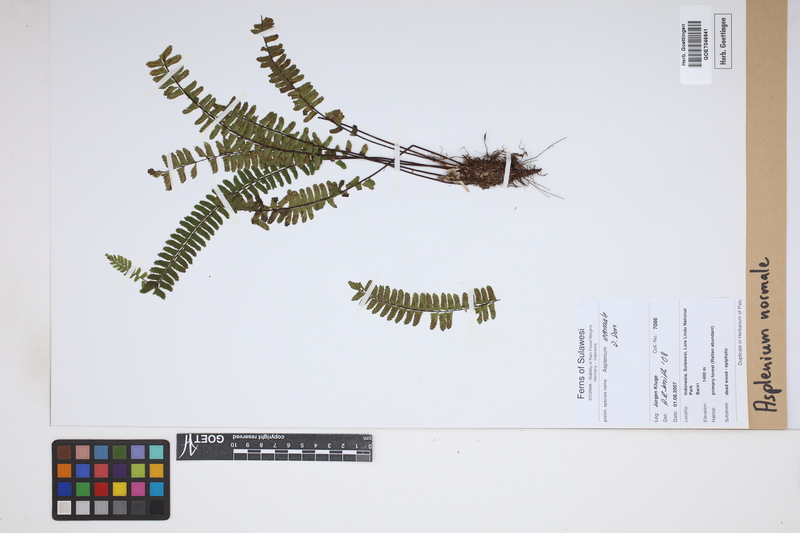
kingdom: Plantae
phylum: Tracheophyta
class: Polypodiopsida
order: Polypodiales
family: Aspleniaceae
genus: Asplenium
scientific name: Asplenium normale
